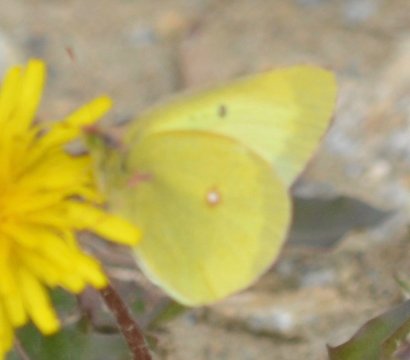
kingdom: Animalia
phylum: Arthropoda
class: Insecta
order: Lepidoptera
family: Pieridae
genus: Colias
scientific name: Colias philodice
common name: Clouded Sulphur
